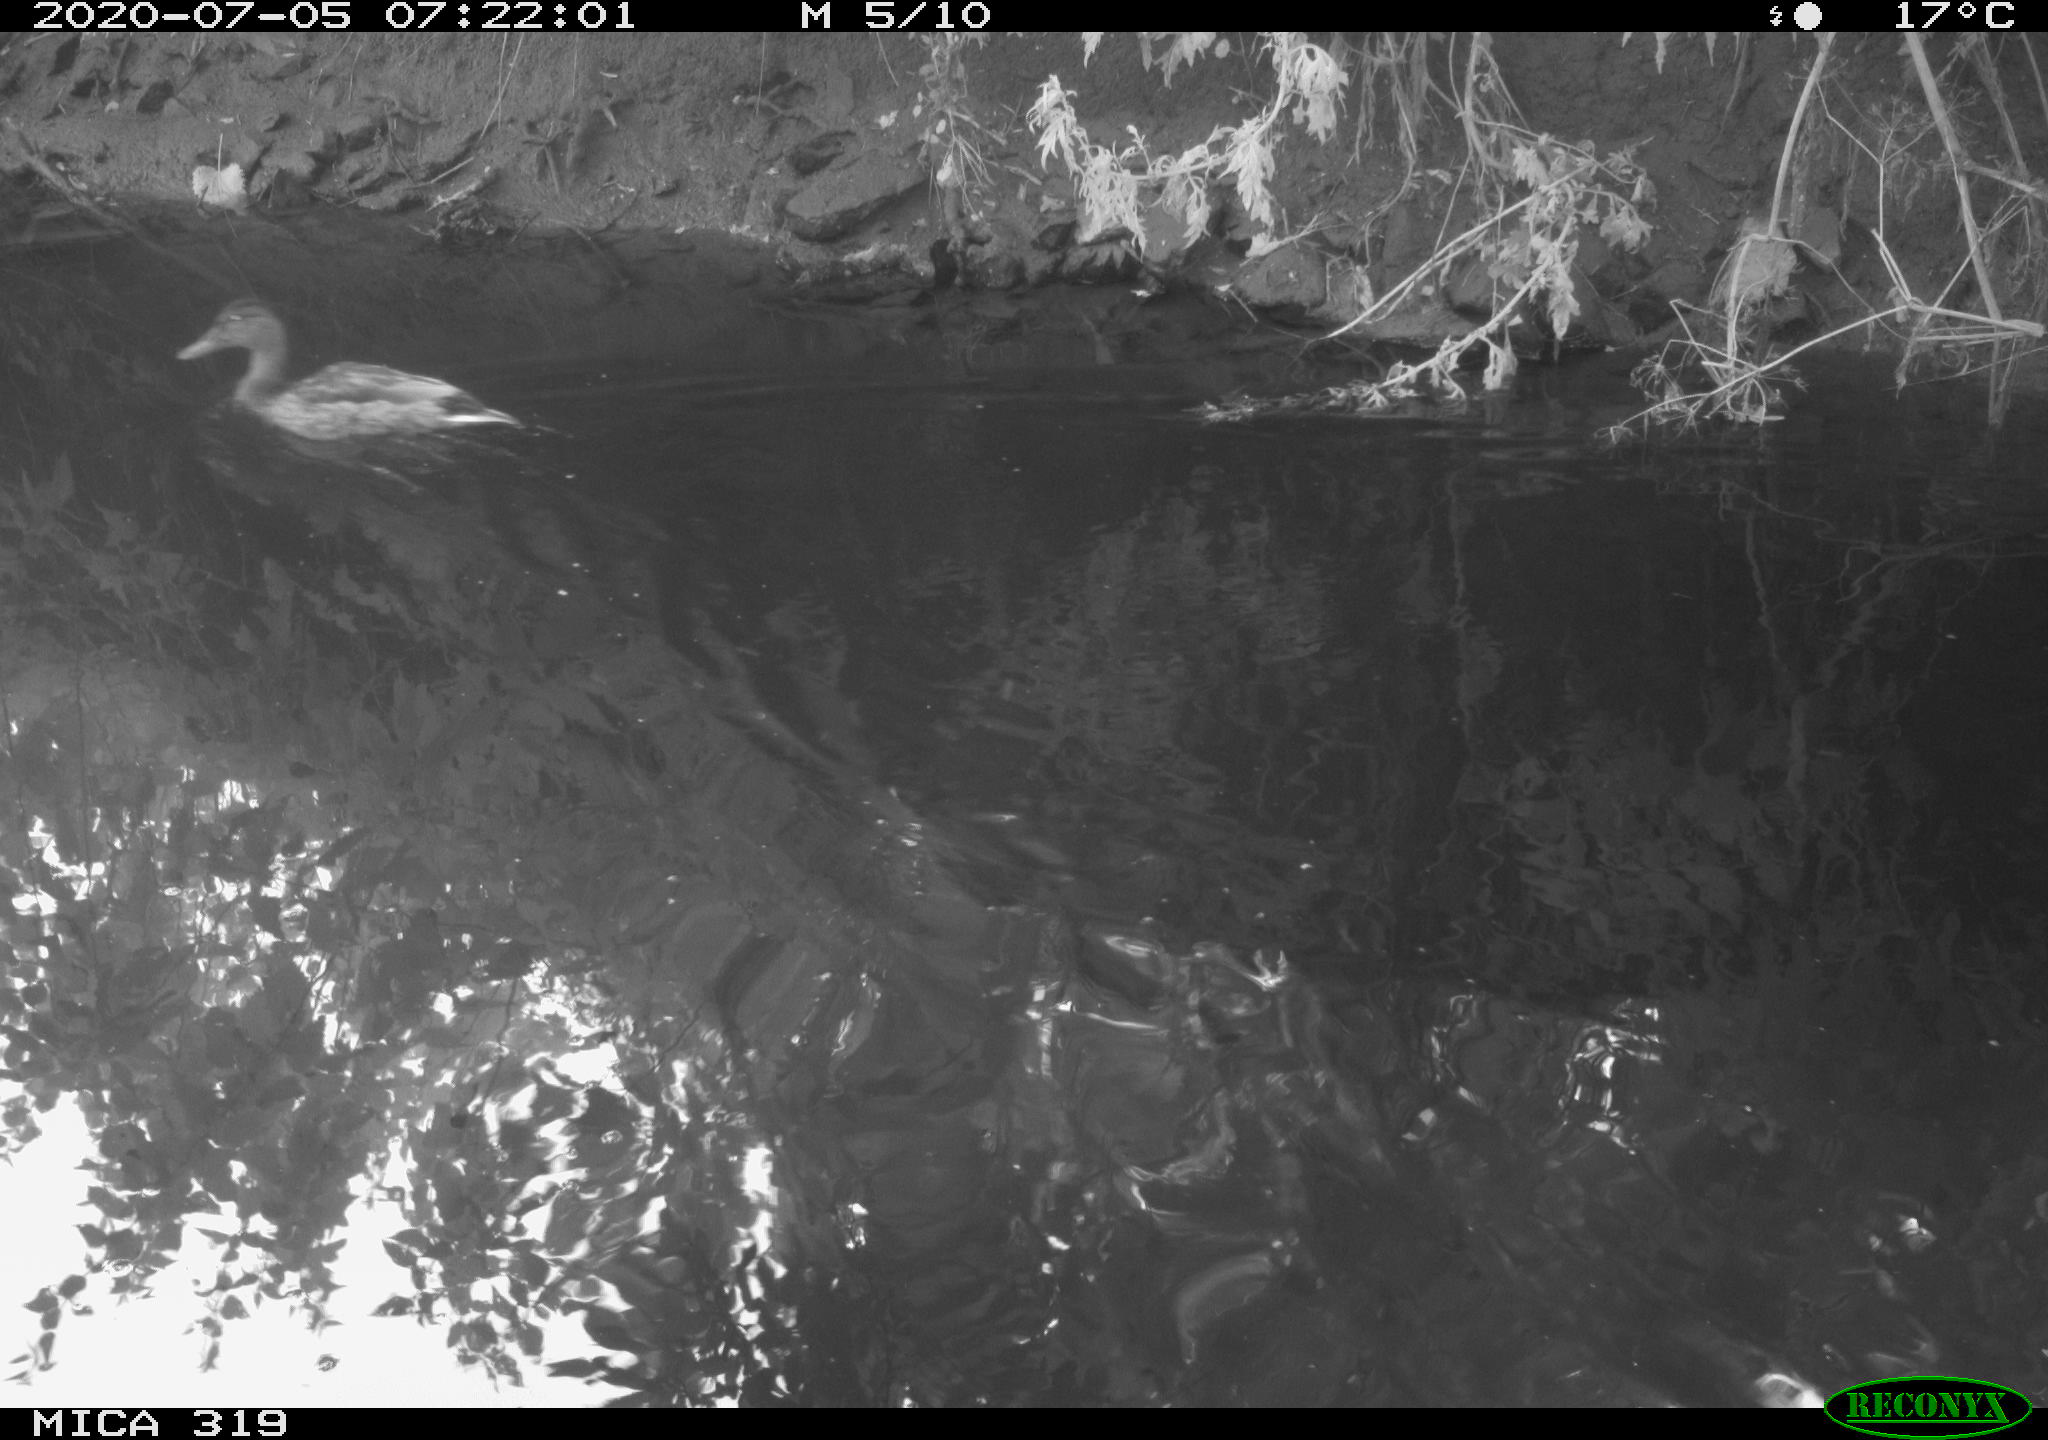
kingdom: Animalia
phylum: Chordata
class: Aves
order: Anseriformes
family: Anatidae
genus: Anas
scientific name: Anas platyrhynchos
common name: Mallard
